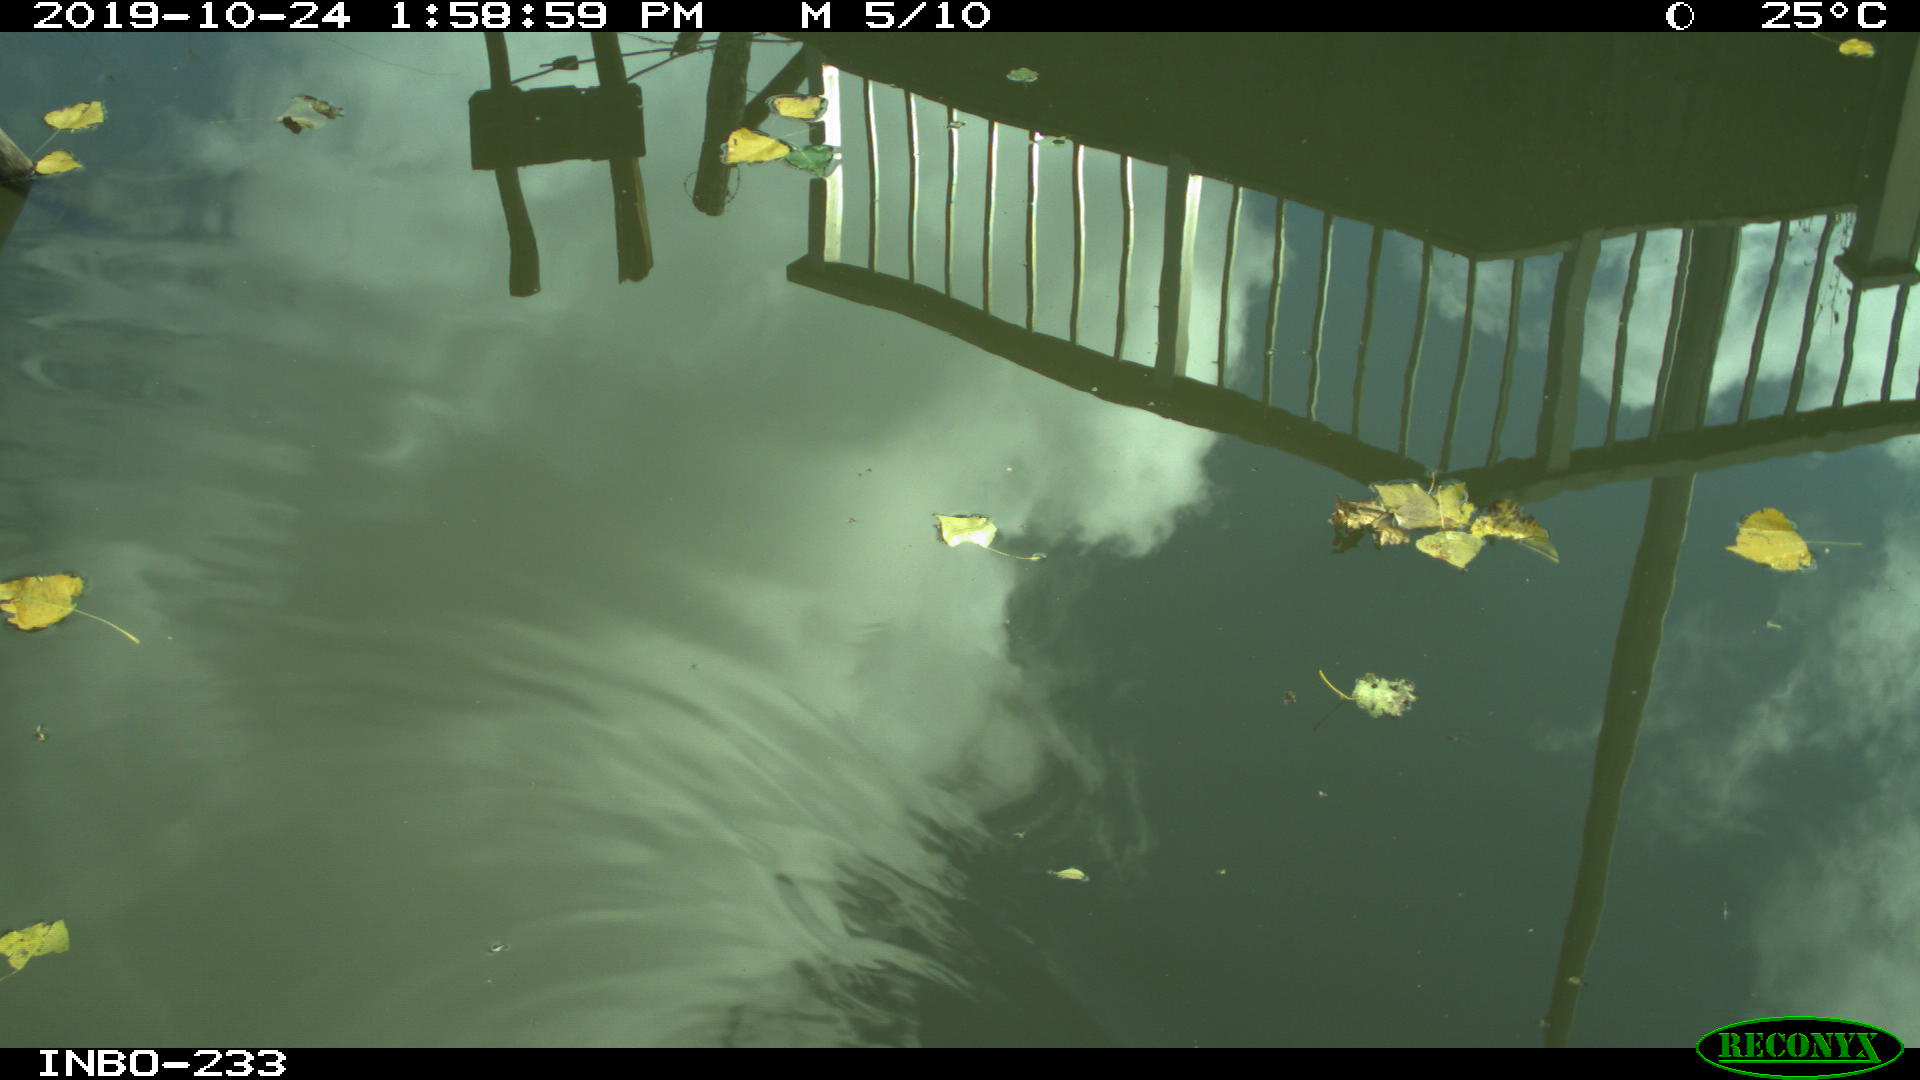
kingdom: Animalia
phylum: Chordata
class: Aves
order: Gruiformes
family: Rallidae
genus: Gallinula
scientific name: Gallinula chloropus
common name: Common moorhen
